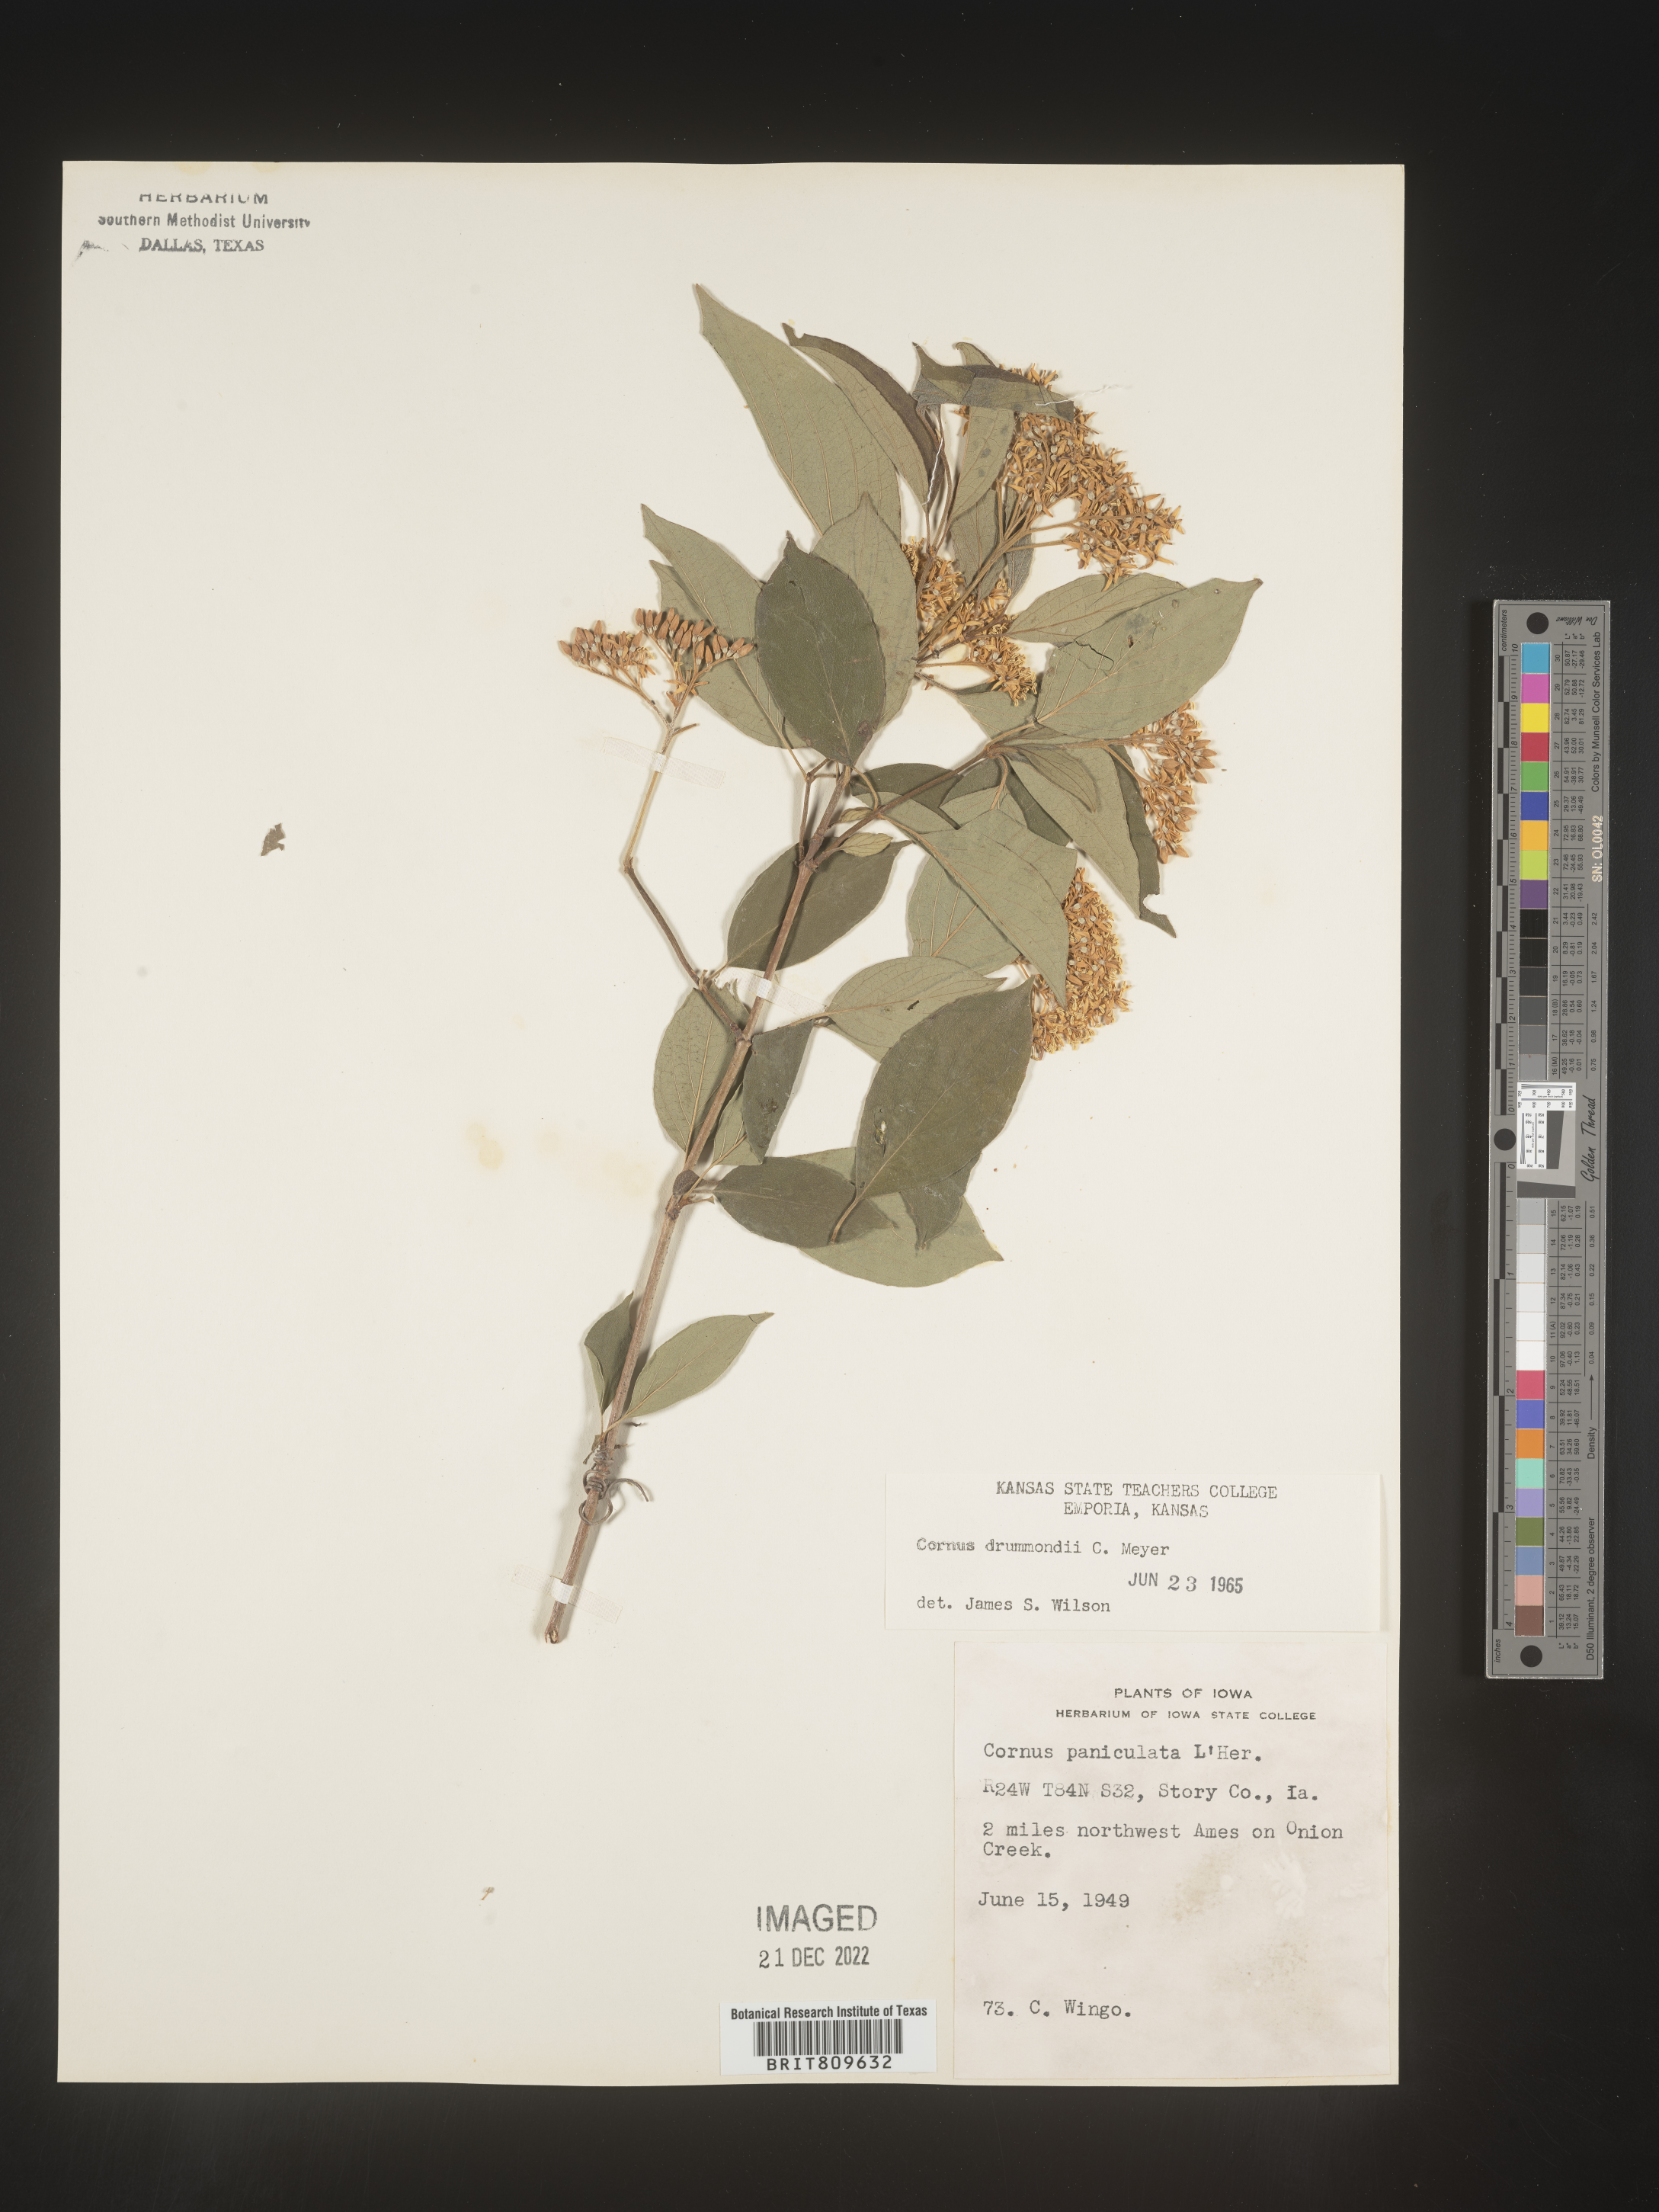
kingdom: Plantae
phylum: Tracheophyta
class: Magnoliopsida
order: Cornales
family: Cornaceae
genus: Cornus
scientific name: Cornus drummondii
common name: Rough-leaf dogwood
